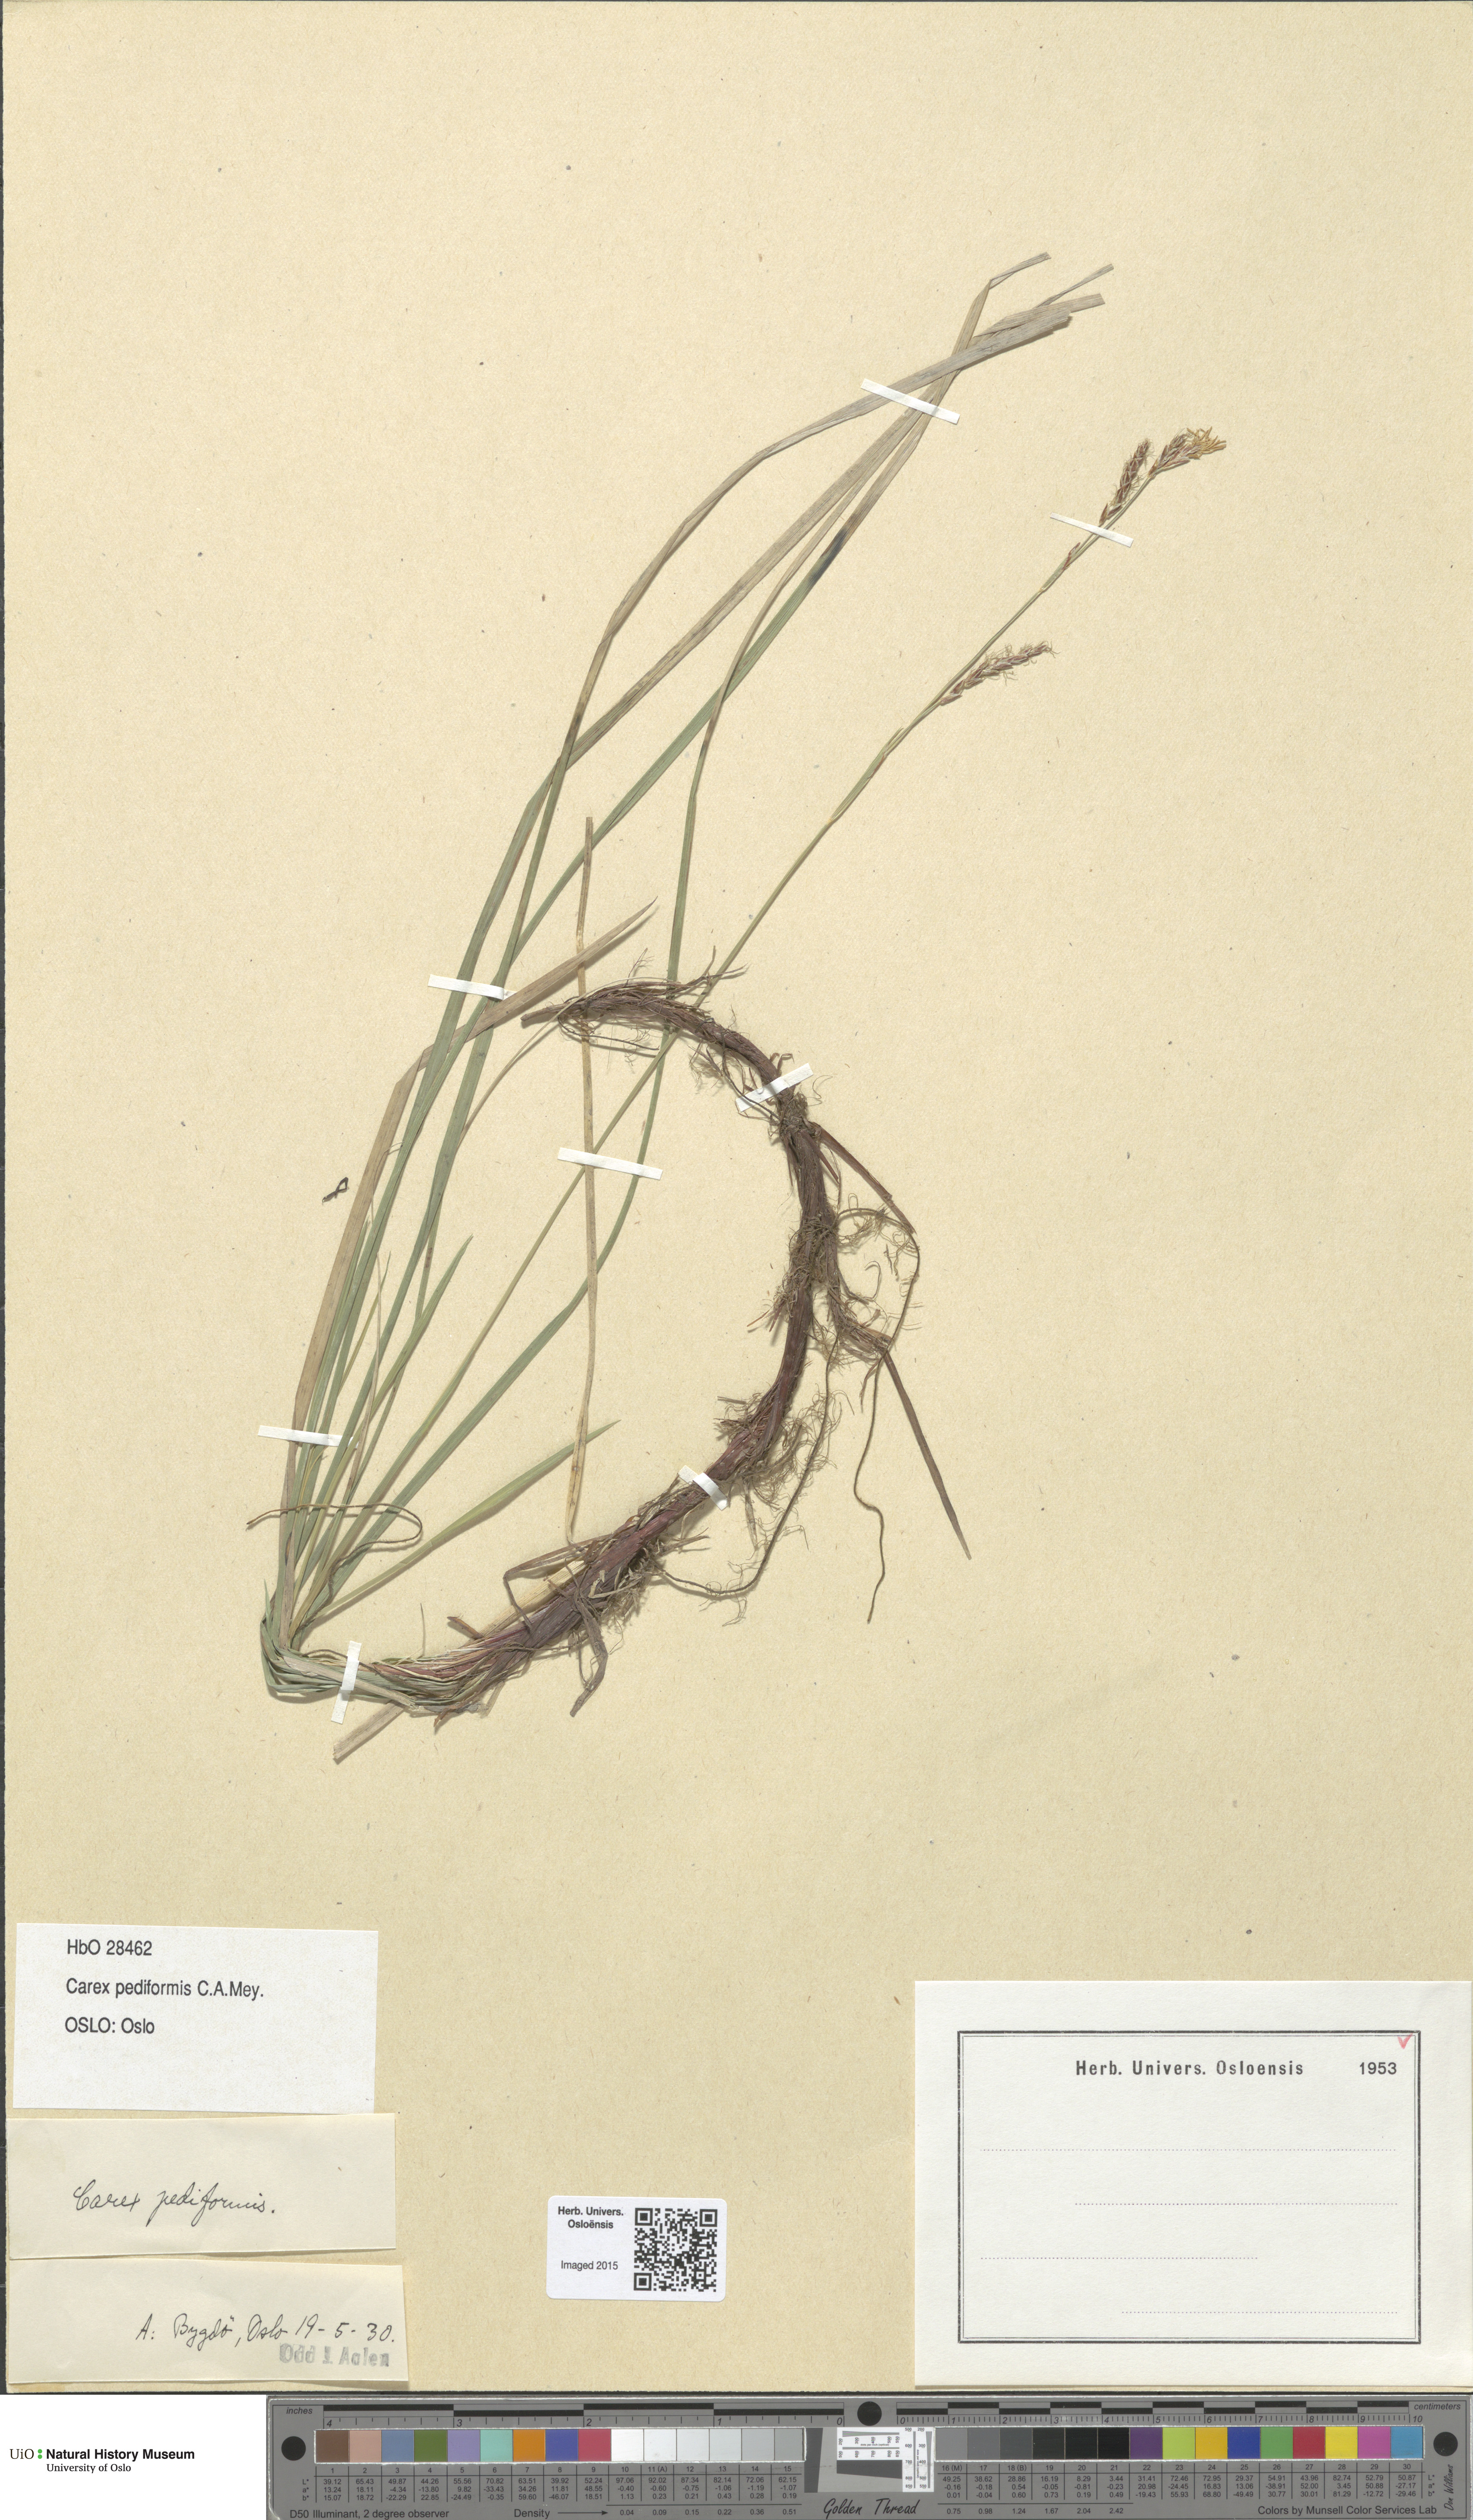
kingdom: Plantae
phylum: Tracheophyta
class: Liliopsida
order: Poales
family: Cyperaceae
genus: Carex
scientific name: Carex rhizina
